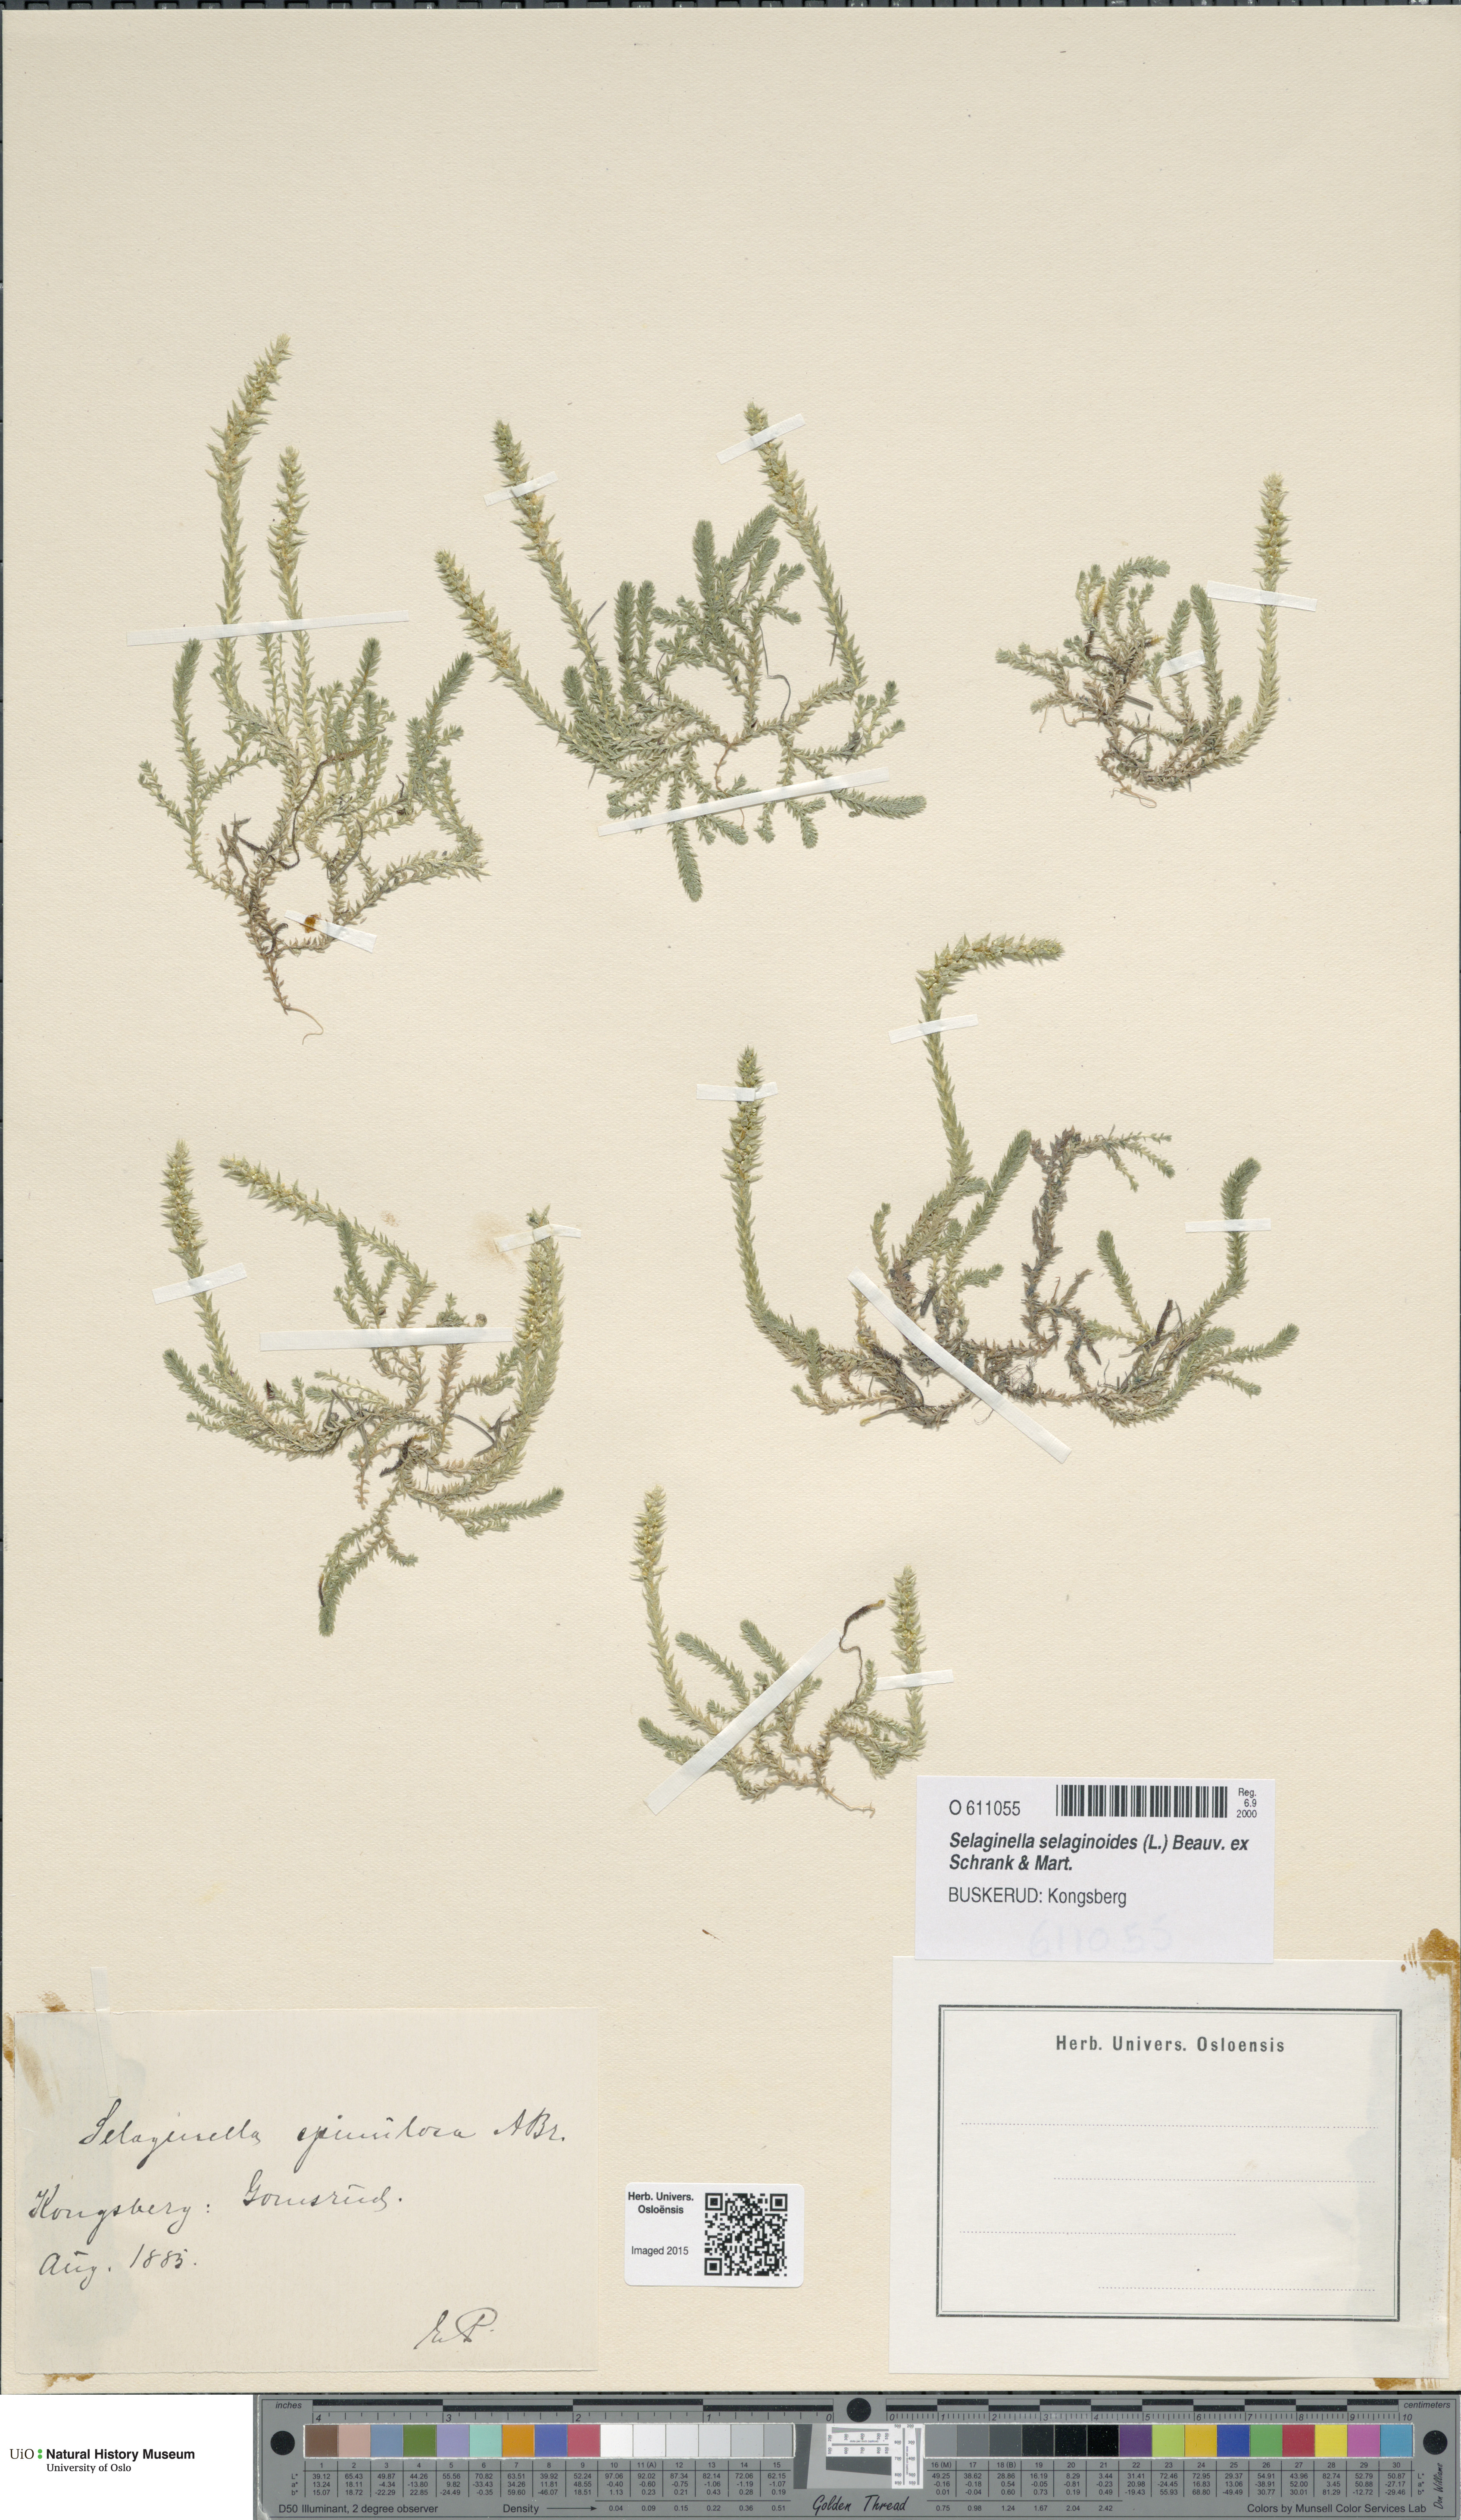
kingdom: Plantae
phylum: Tracheophyta
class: Lycopodiopsida
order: Selaginellales
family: Selaginellaceae
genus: Selaginella
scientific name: Selaginella selaginoides
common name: Prickly mountain-moss
